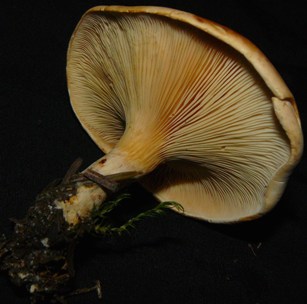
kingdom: Fungi
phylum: Basidiomycota
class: Agaricomycetes
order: Agaricales
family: Tricholomataceae
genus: Paralepista
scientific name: Paralepista gilva
